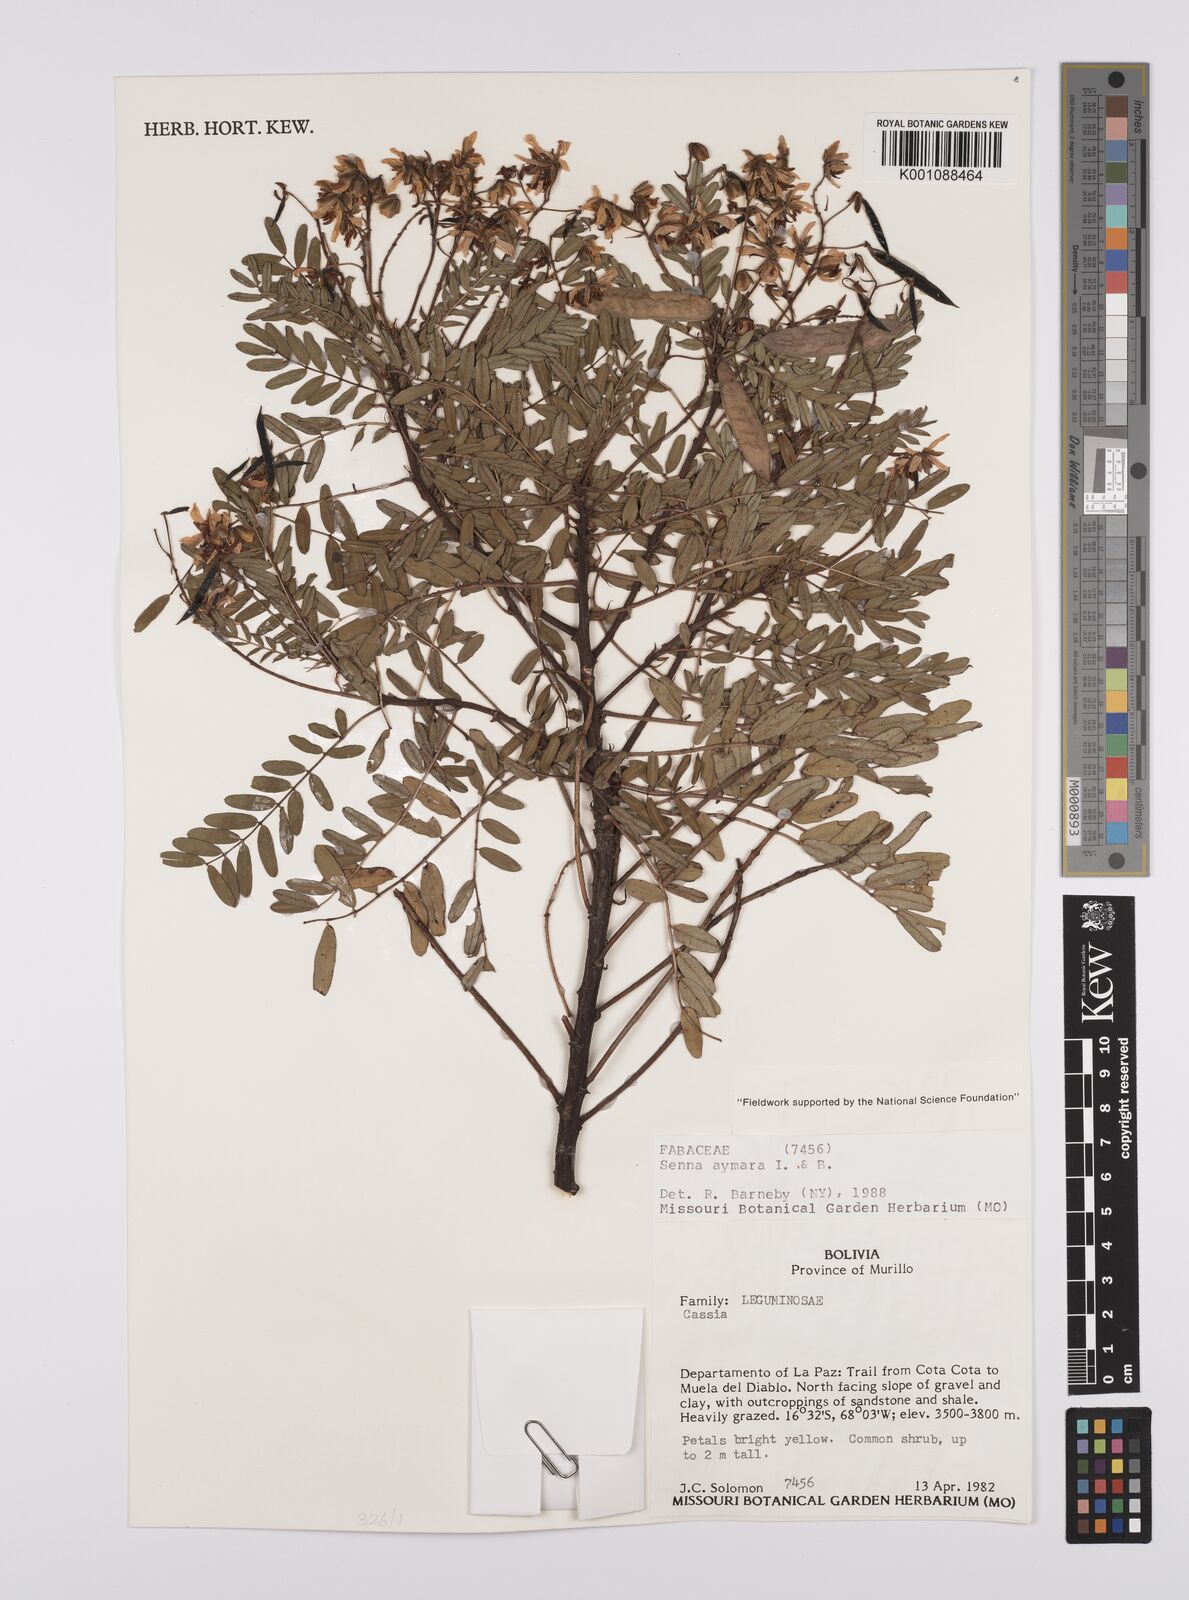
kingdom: Plantae
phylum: Tracheophyta
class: Magnoliopsida
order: Fabales
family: Fabaceae
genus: Senna
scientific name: Senna aymara
